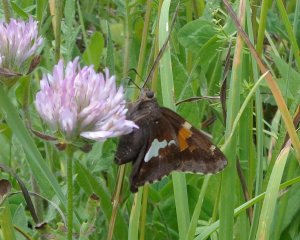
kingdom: Animalia
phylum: Arthropoda
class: Insecta
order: Lepidoptera
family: Hesperiidae
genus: Epargyreus
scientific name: Epargyreus clarus
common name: Silver-spotted Skipper
